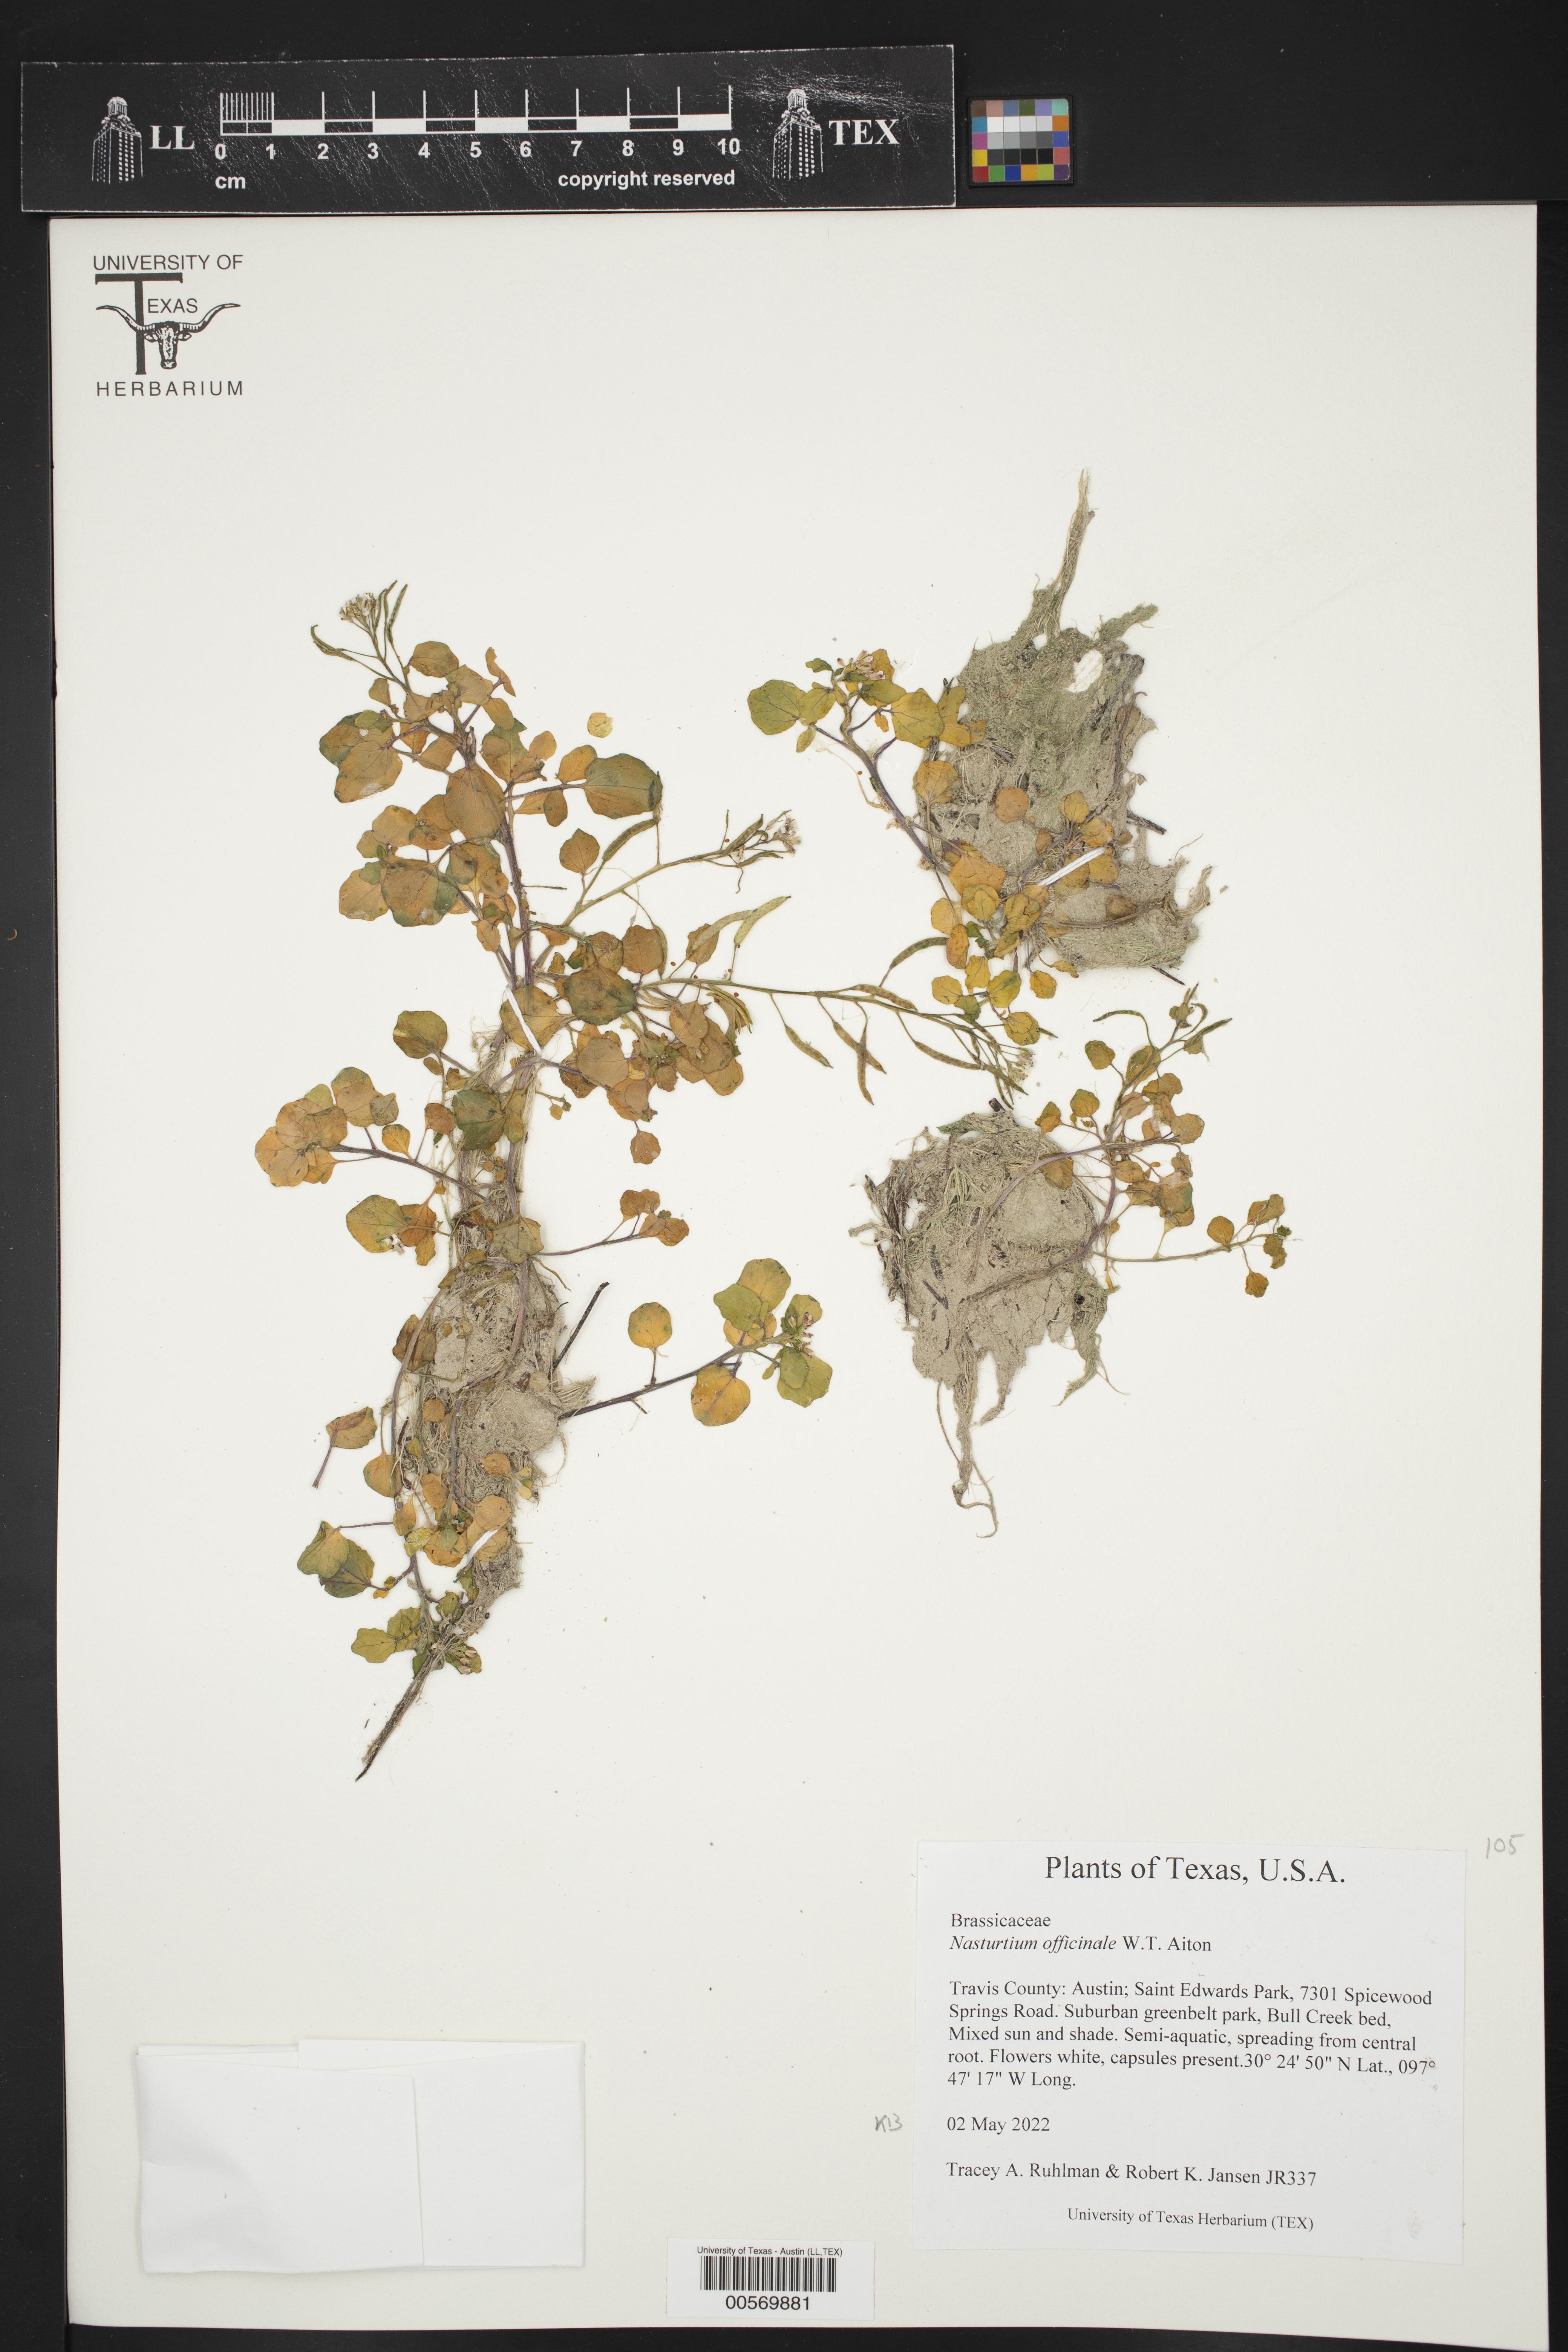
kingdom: Plantae
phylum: Tracheophyta
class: Magnoliopsida
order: Brassicales
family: Brassicaceae
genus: Nasturtium
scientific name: Nasturtium officinale
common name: Watercress
